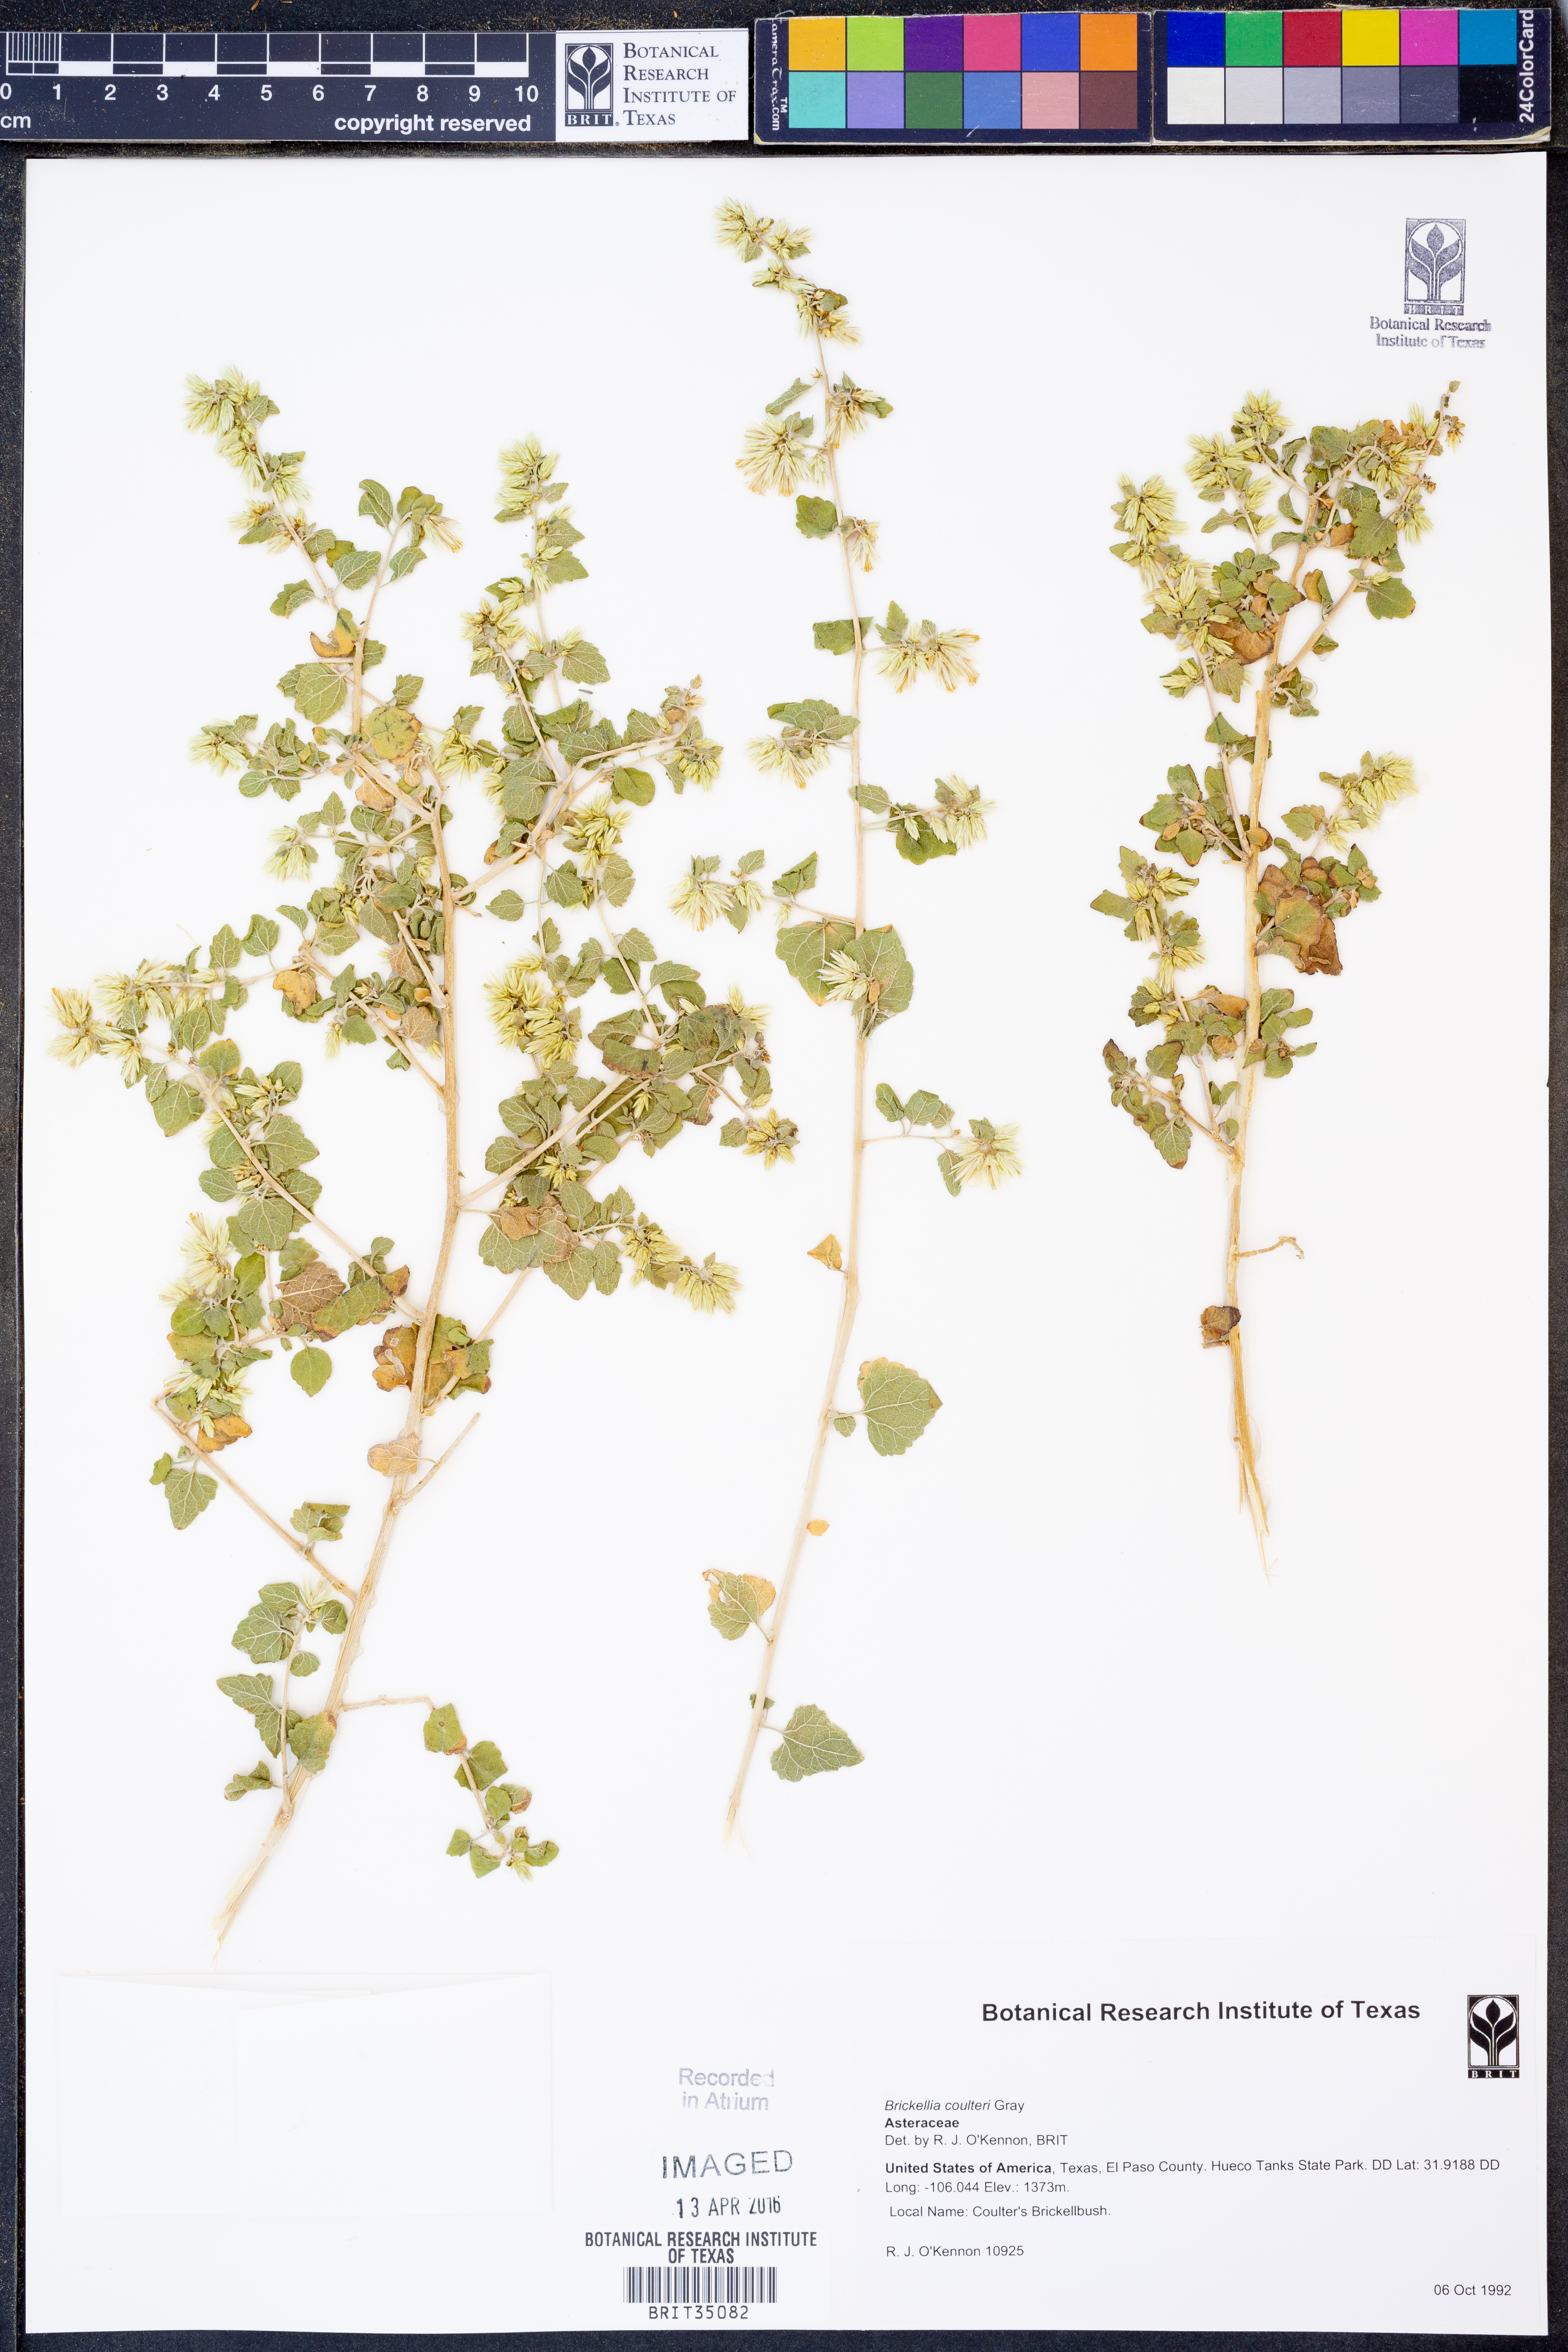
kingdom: Plantae
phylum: Tracheophyta
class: Magnoliopsida
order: Asterales
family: Asteraceae
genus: Brickellia
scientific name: Brickellia coulteri
